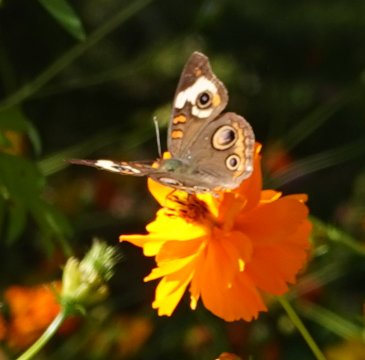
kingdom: Animalia
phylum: Arthropoda
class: Insecta
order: Lepidoptera
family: Nymphalidae
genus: Junonia
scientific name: Junonia coenia
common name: Common Buckeye
